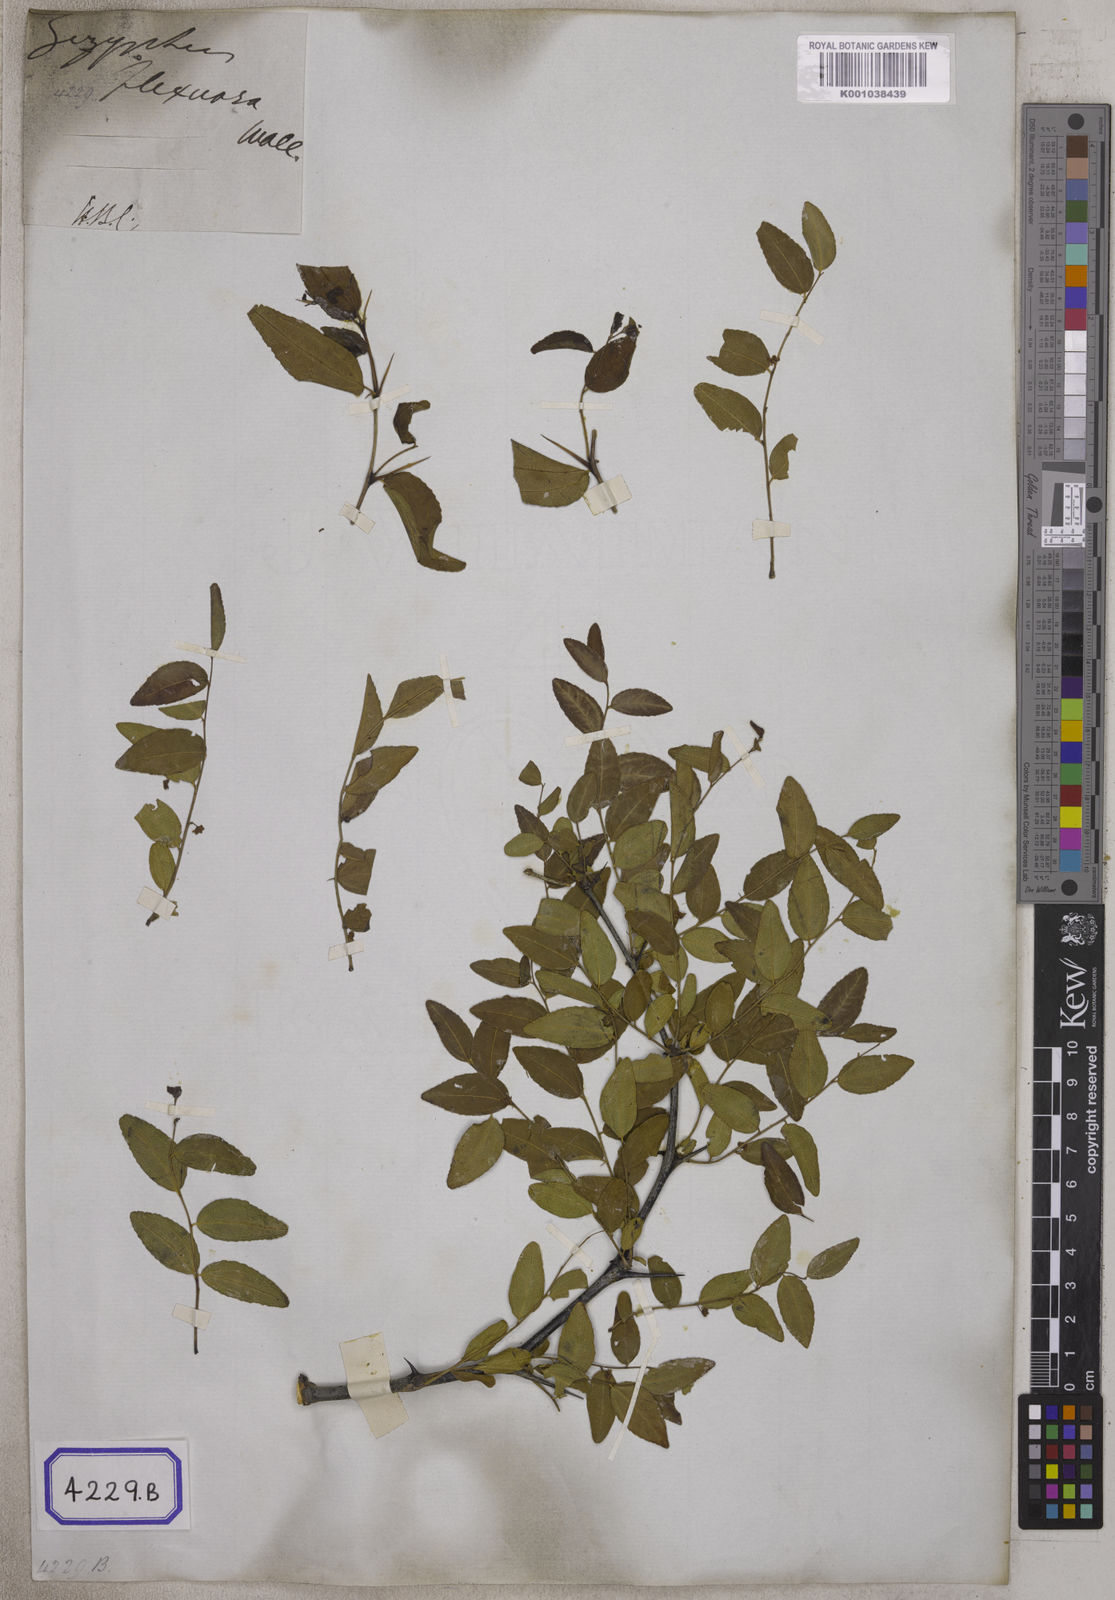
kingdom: Plantae
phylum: Tracheophyta
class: Magnoliopsida
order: Rosales
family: Rhamnaceae
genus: Ziziphus
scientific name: Ziziphus jujuba
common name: Jujube red date
